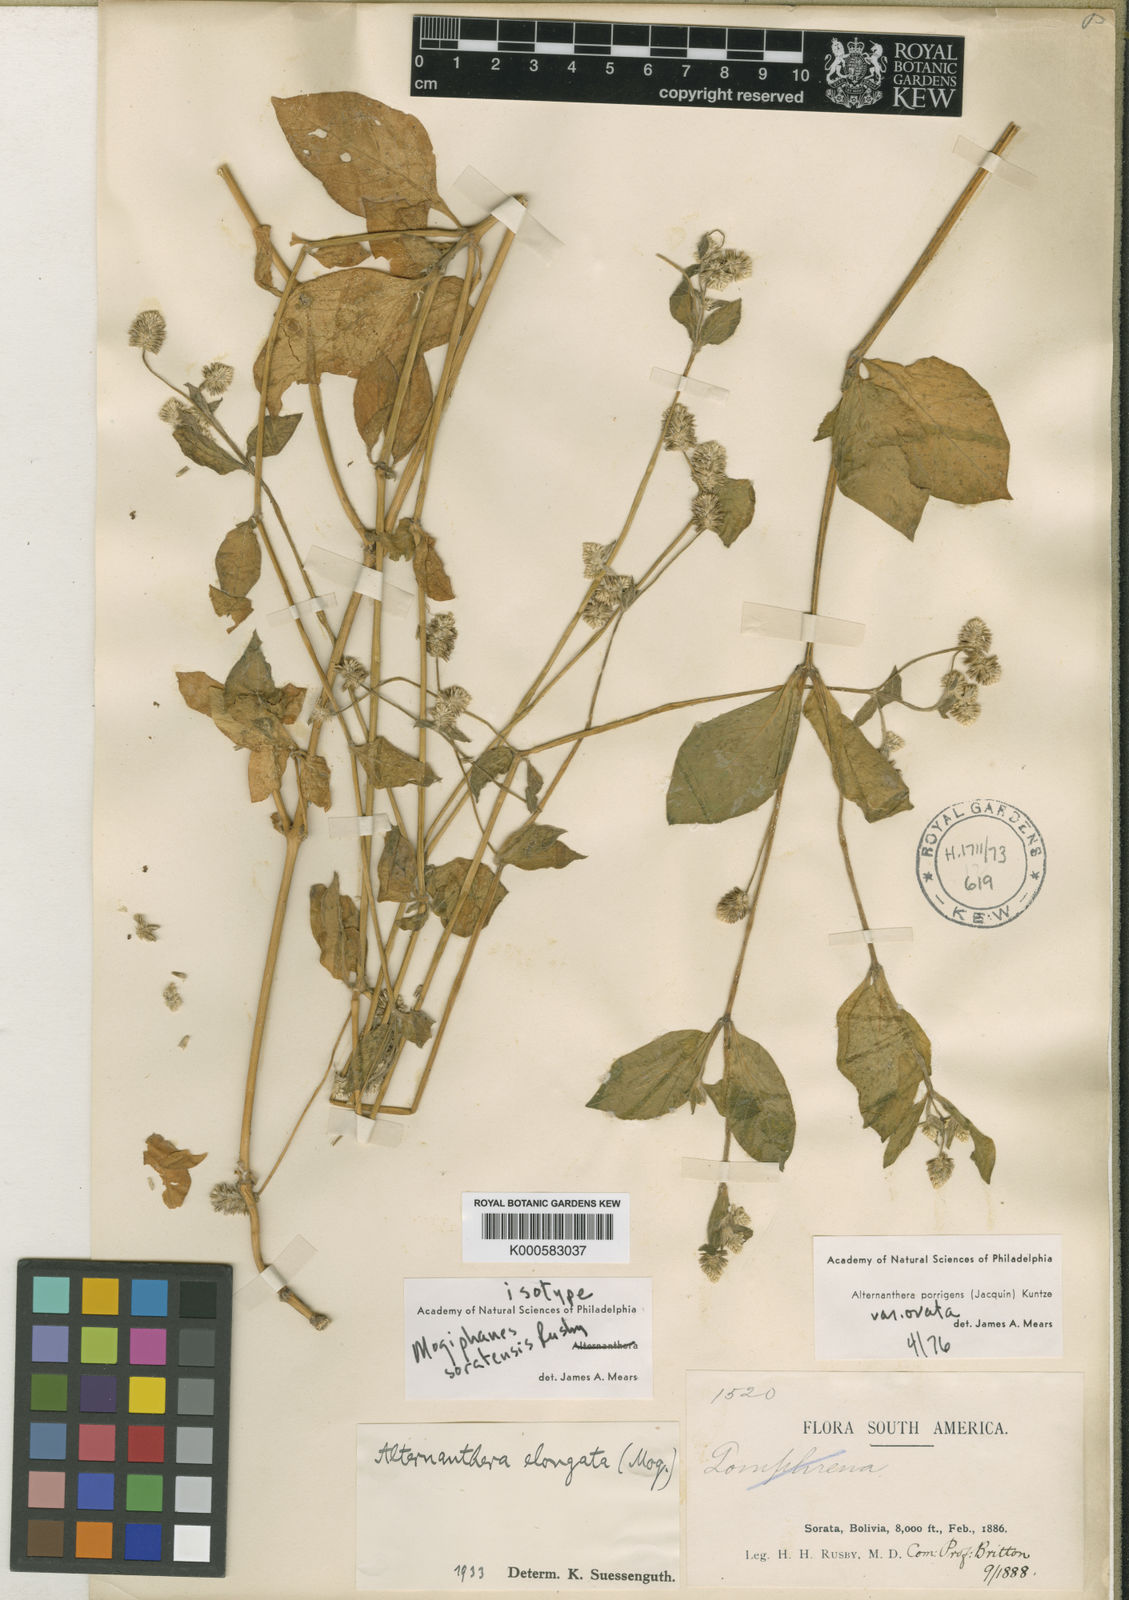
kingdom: Plantae
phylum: Tracheophyta
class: Magnoliopsida
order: Caryophyllales
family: Amaranthaceae
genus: Alternanthera
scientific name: Alternanthera porrigens
